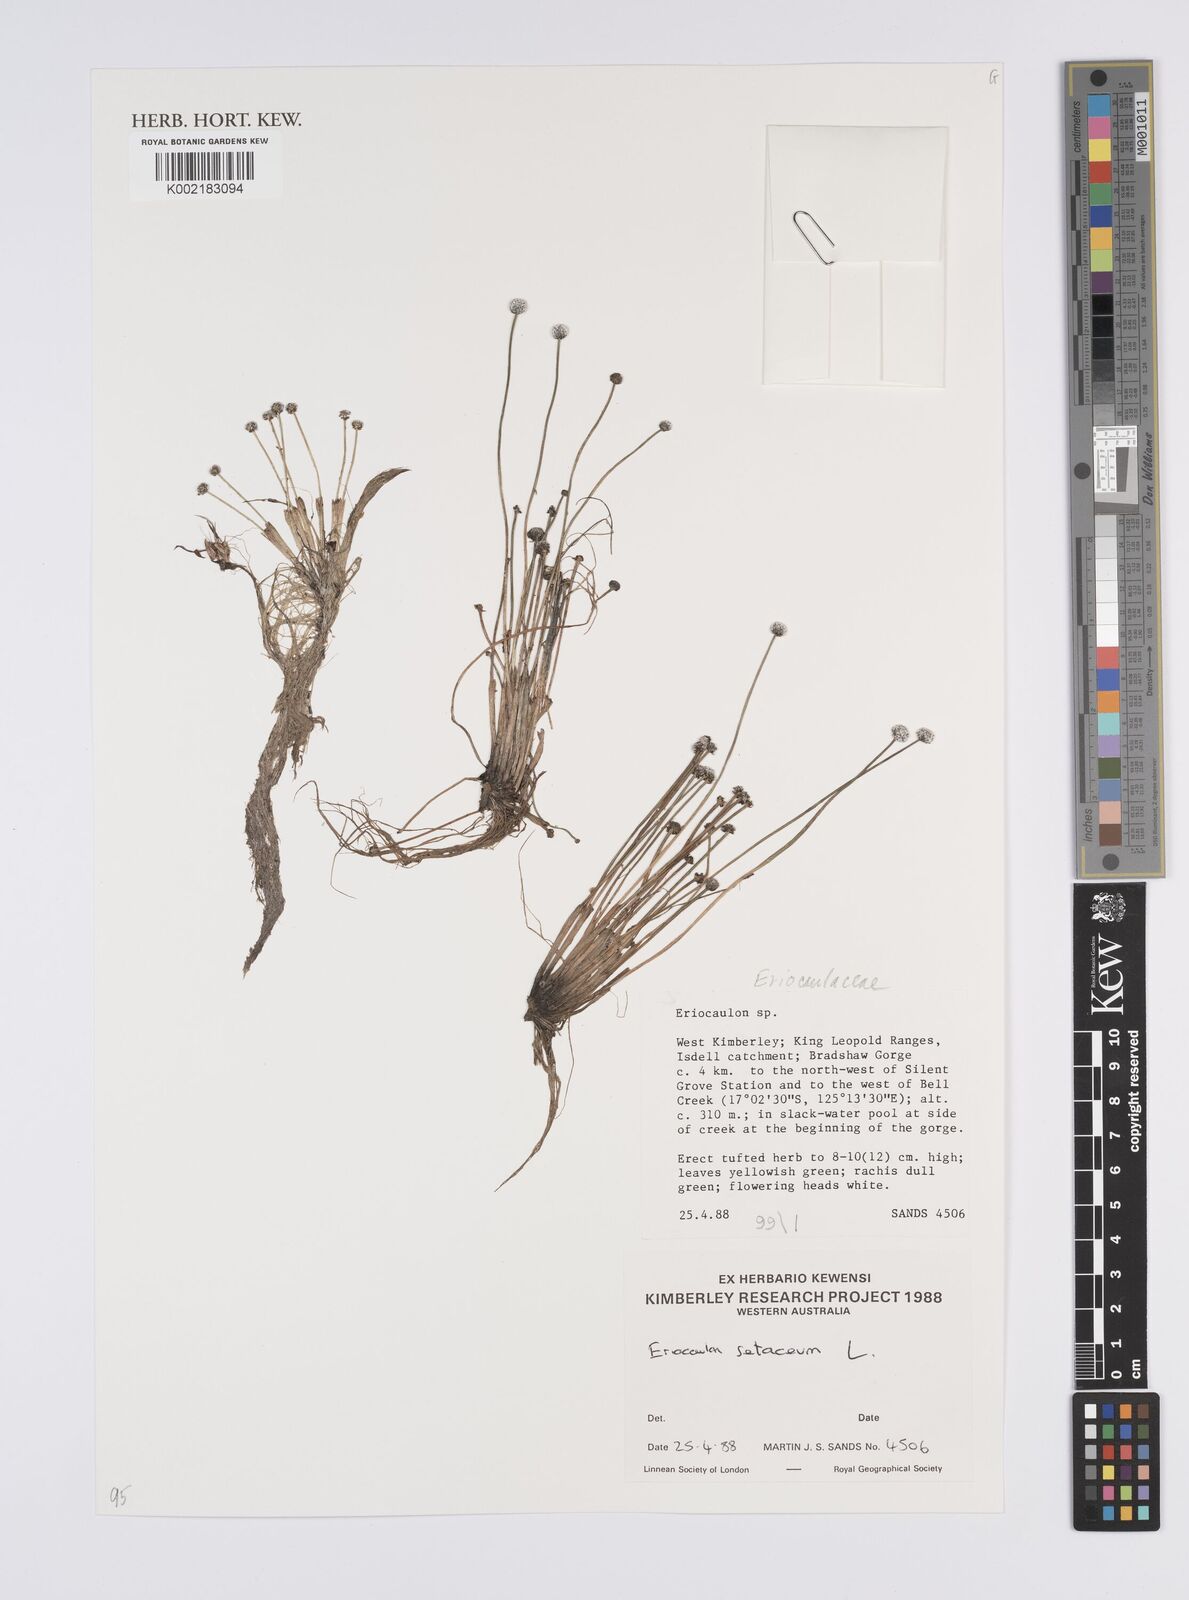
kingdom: Plantae
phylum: Tracheophyta
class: Liliopsida
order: Poales
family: Eriocaulaceae
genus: Eriocaulon
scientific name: Eriocaulon setaceum
